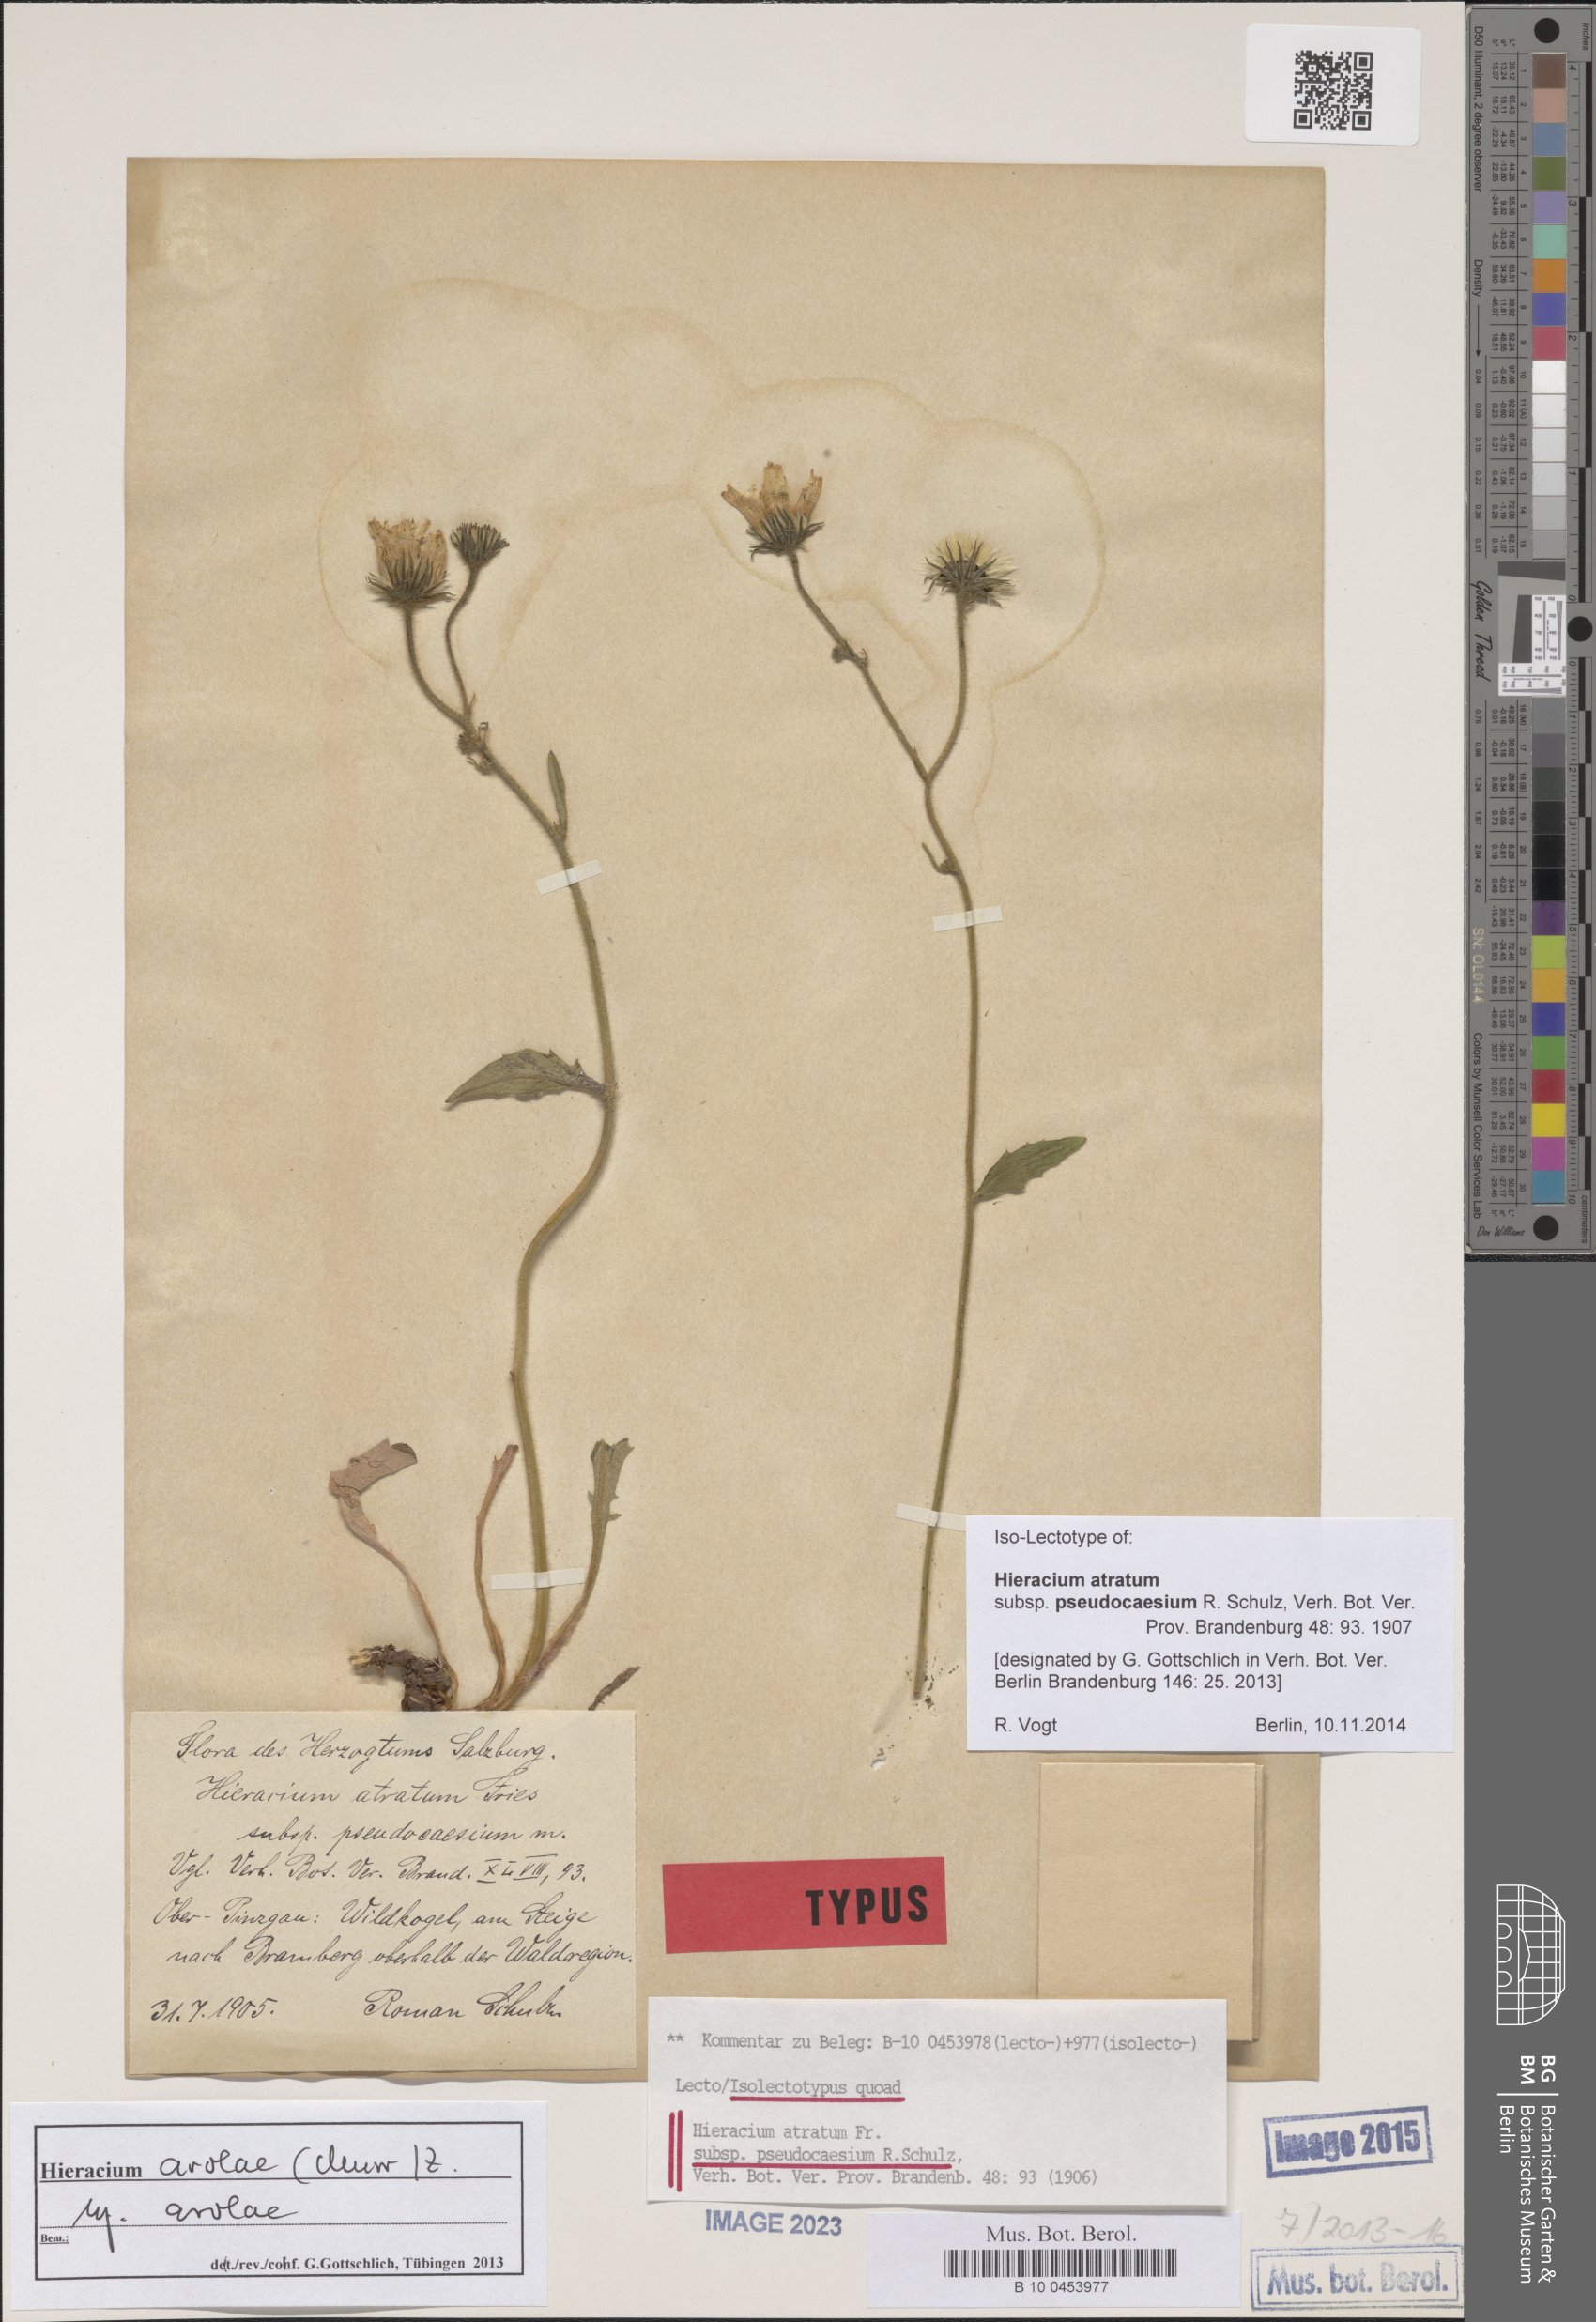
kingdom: Plantae
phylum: Tracheophyta
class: Magnoliopsida
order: Asterales
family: Asteraceae
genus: Hieracium
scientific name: Hieracium arolae
